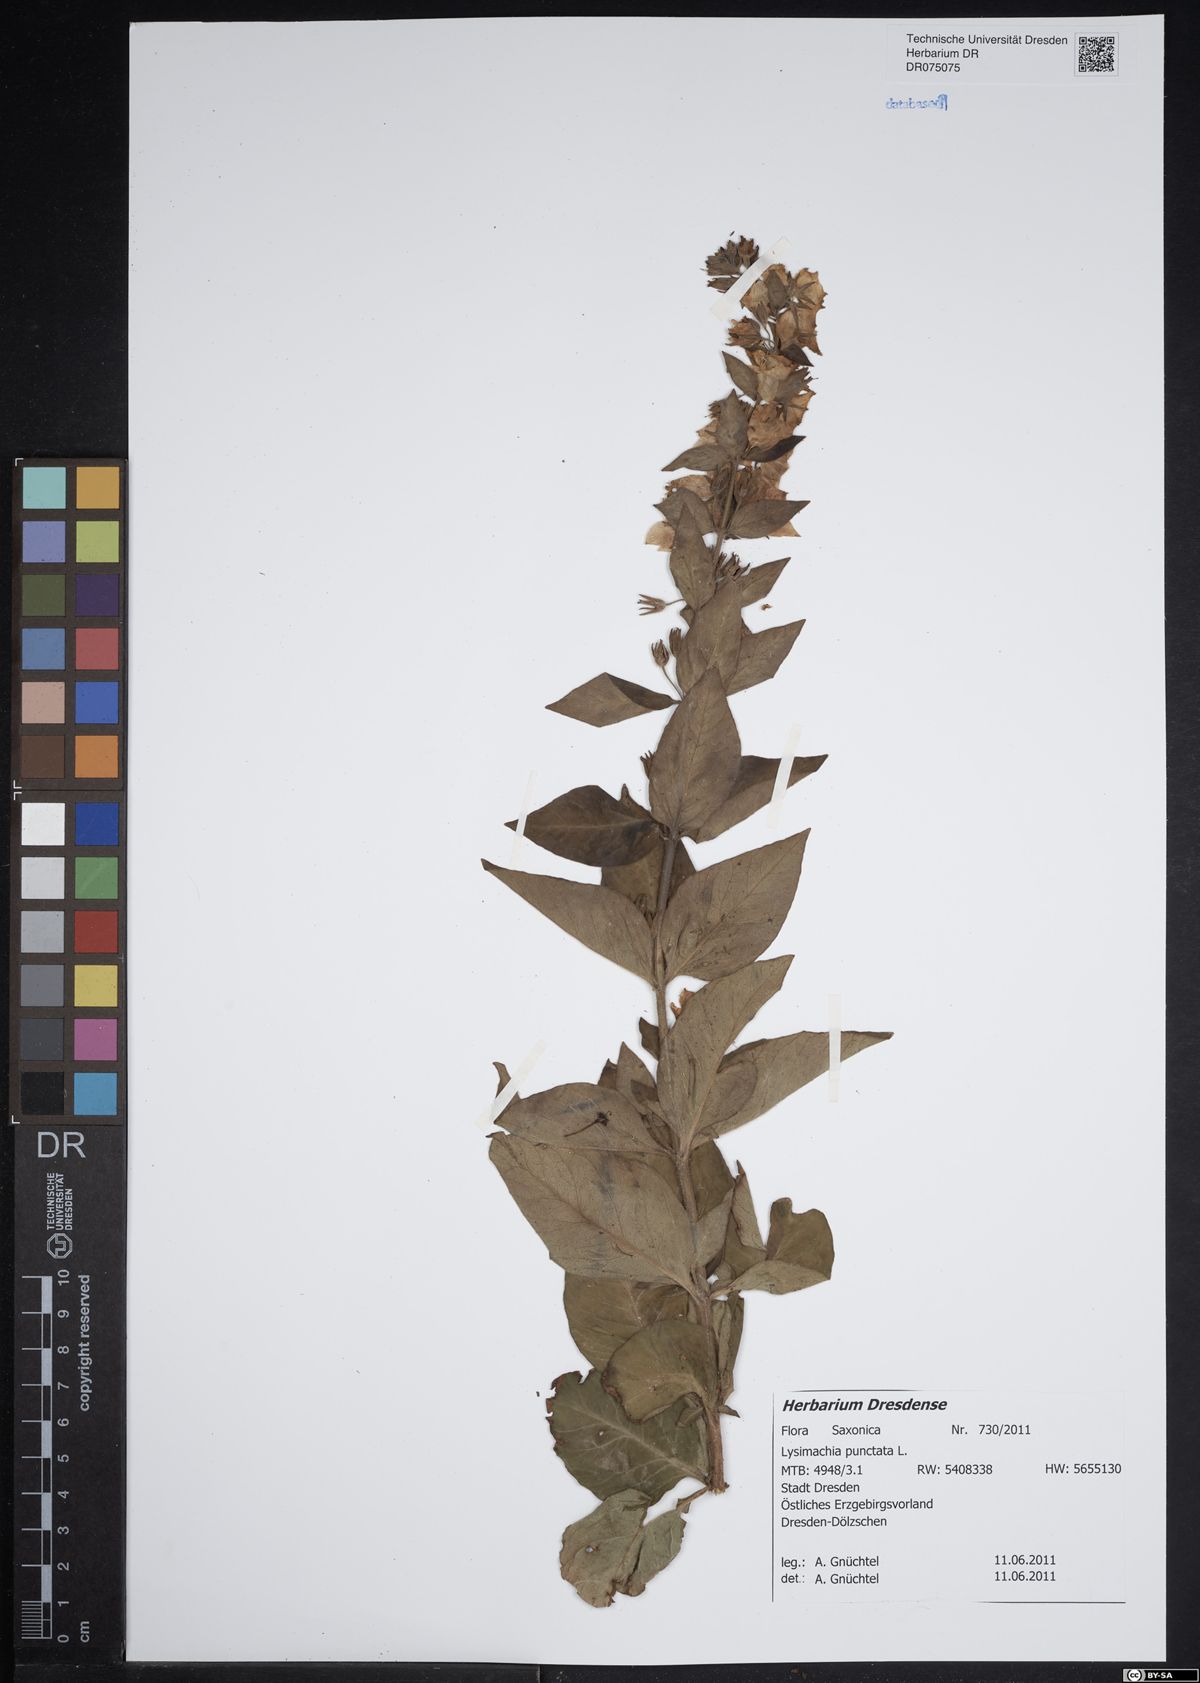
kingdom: Plantae
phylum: Tracheophyta
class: Magnoliopsida
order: Ericales
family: Primulaceae
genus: Lysimachia
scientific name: Lysimachia punctata
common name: Dotted loosestrife
